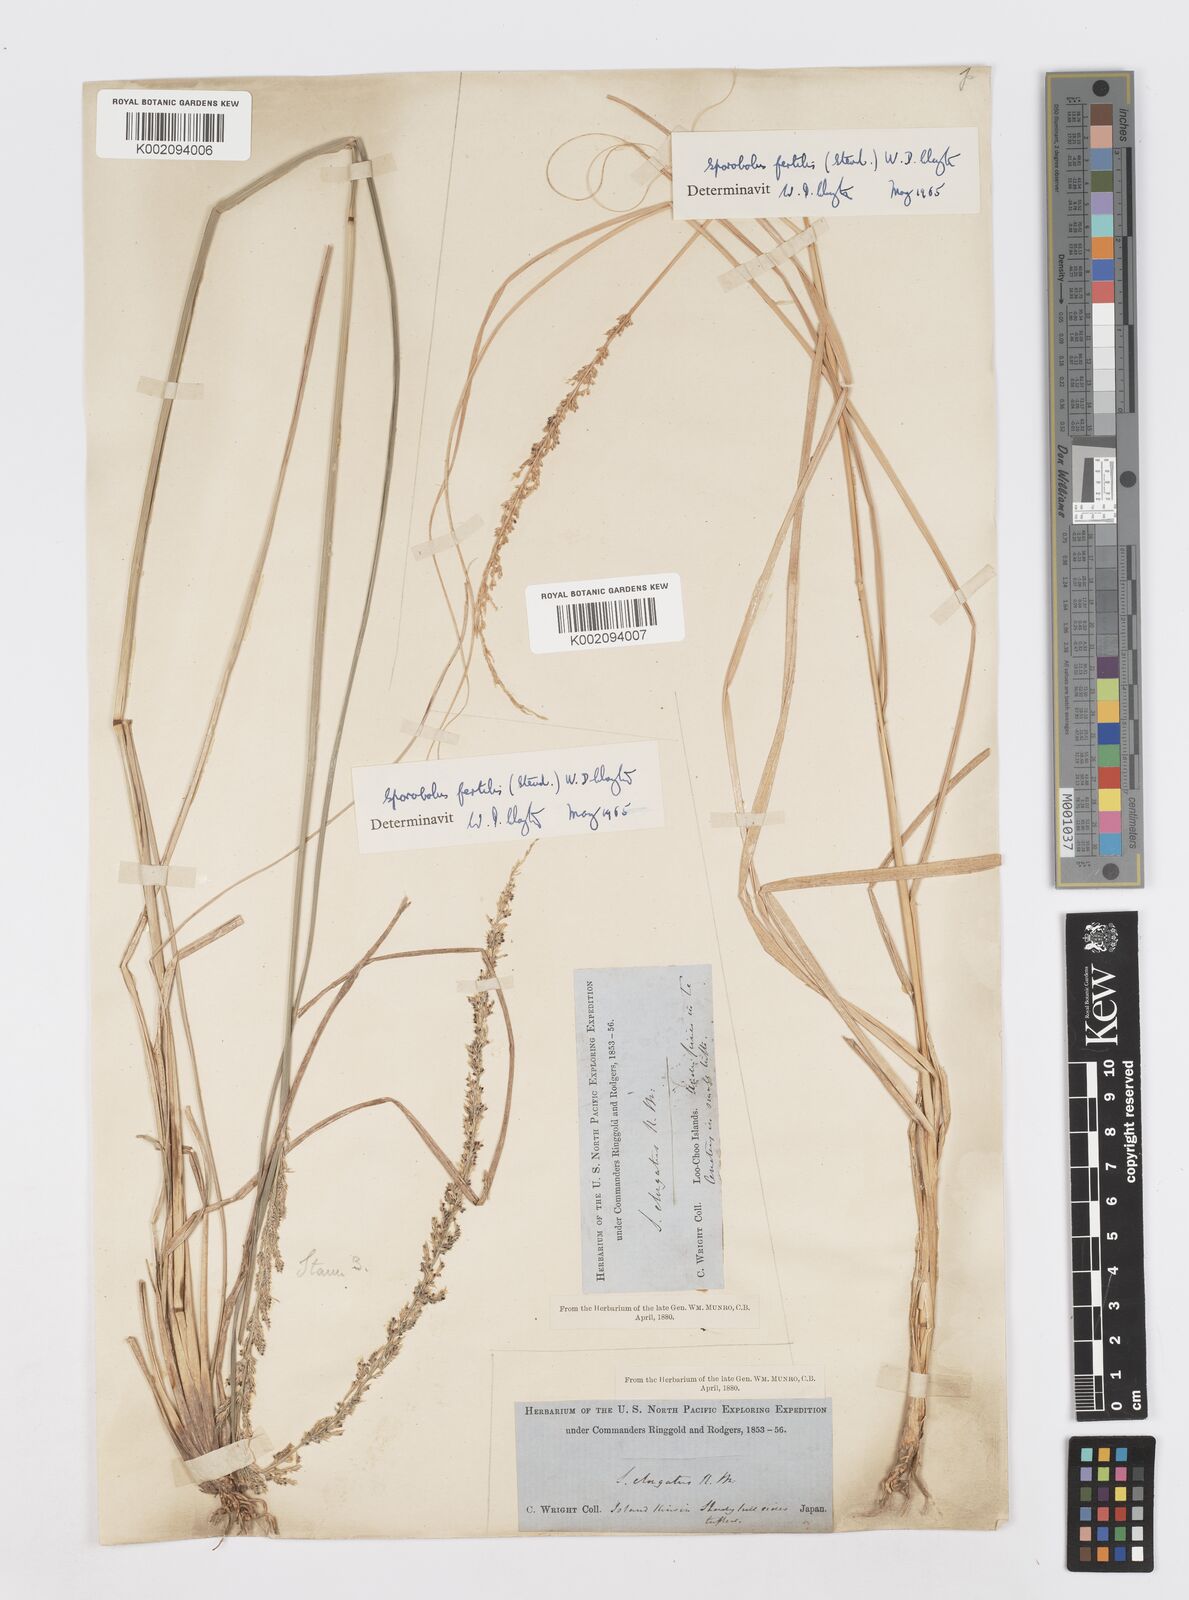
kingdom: Plantae
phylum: Tracheophyta
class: Liliopsida
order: Poales
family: Poaceae
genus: Sporobolus
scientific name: Sporobolus fertilis
